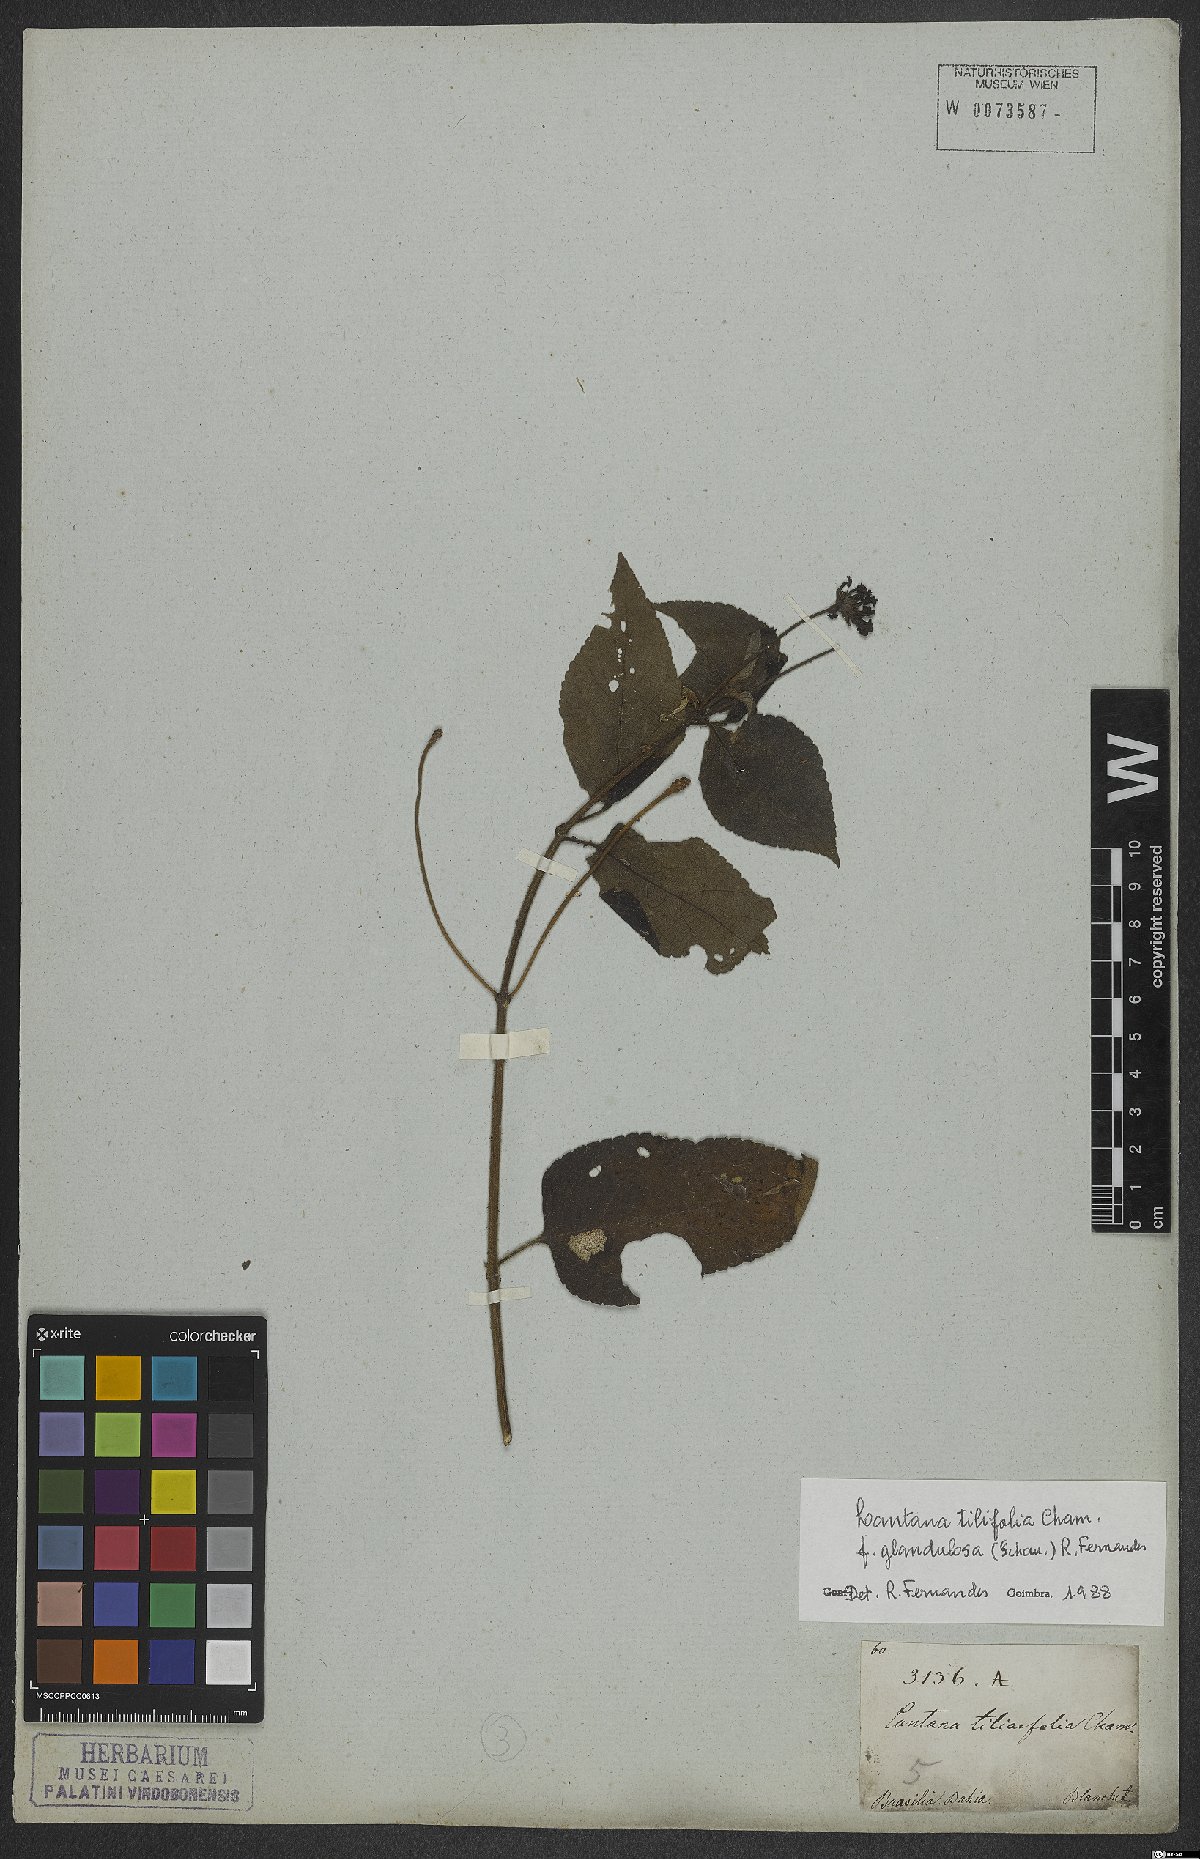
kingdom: Plantae
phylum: Tracheophyta
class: Magnoliopsida
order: Lamiales
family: Verbenaceae
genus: Lantana
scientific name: Lantana horrida
